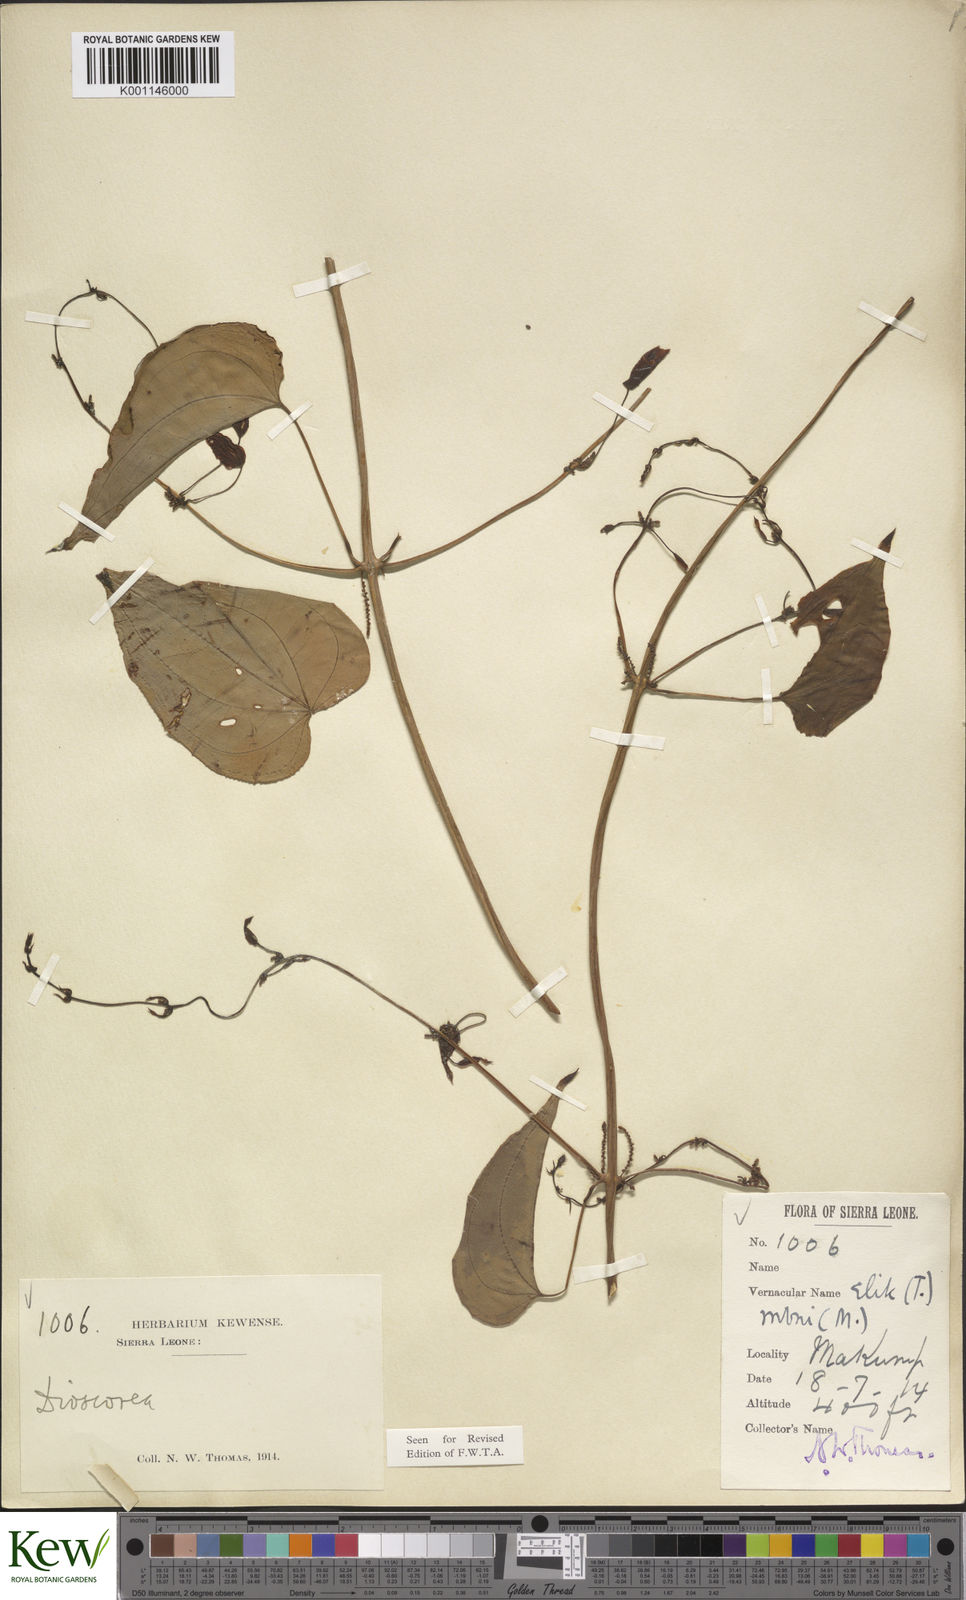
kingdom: Plantae
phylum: Tracheophyta
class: Liliopsida
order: Dioscoreales
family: Dioscoreaceae
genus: Dioscorea
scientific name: Dioscorea praehensilis
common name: Bush yam
